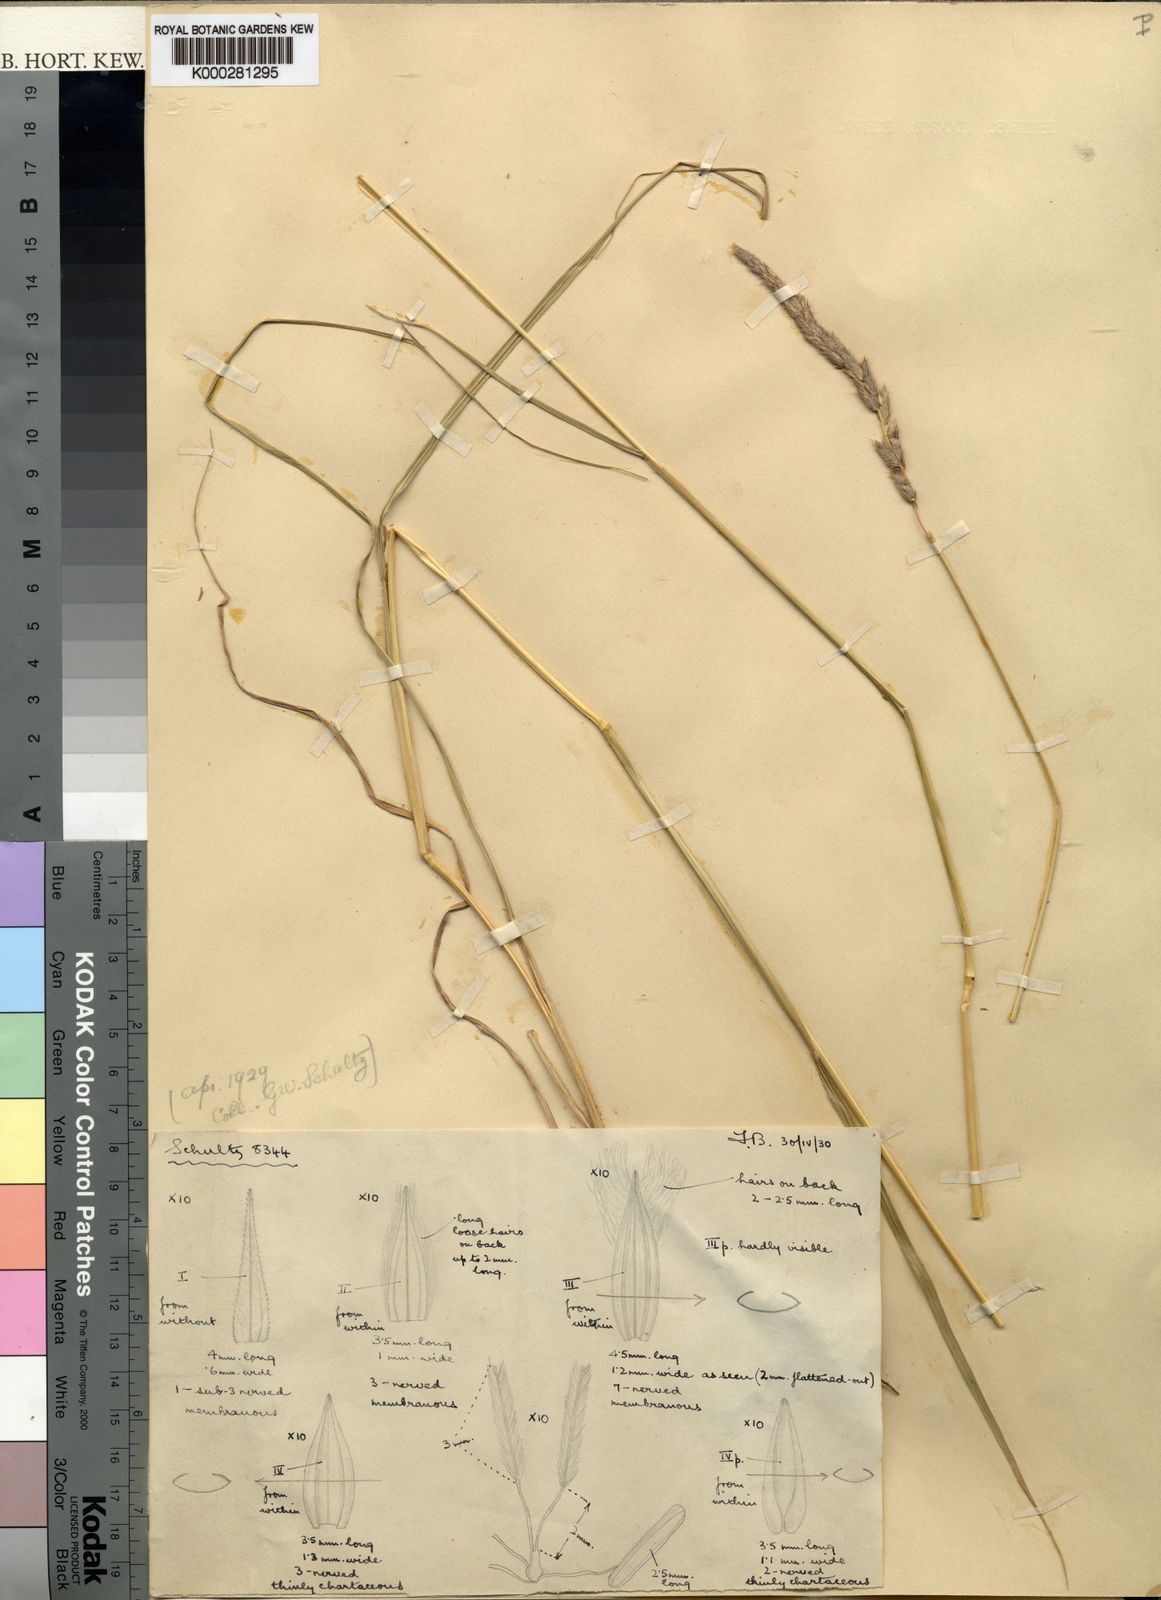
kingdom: Plantae
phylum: Tracheophyta
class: Liliopsida
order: Poales
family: Poaceae
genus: Tarigidia
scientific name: Tarigidia aequiglumis
